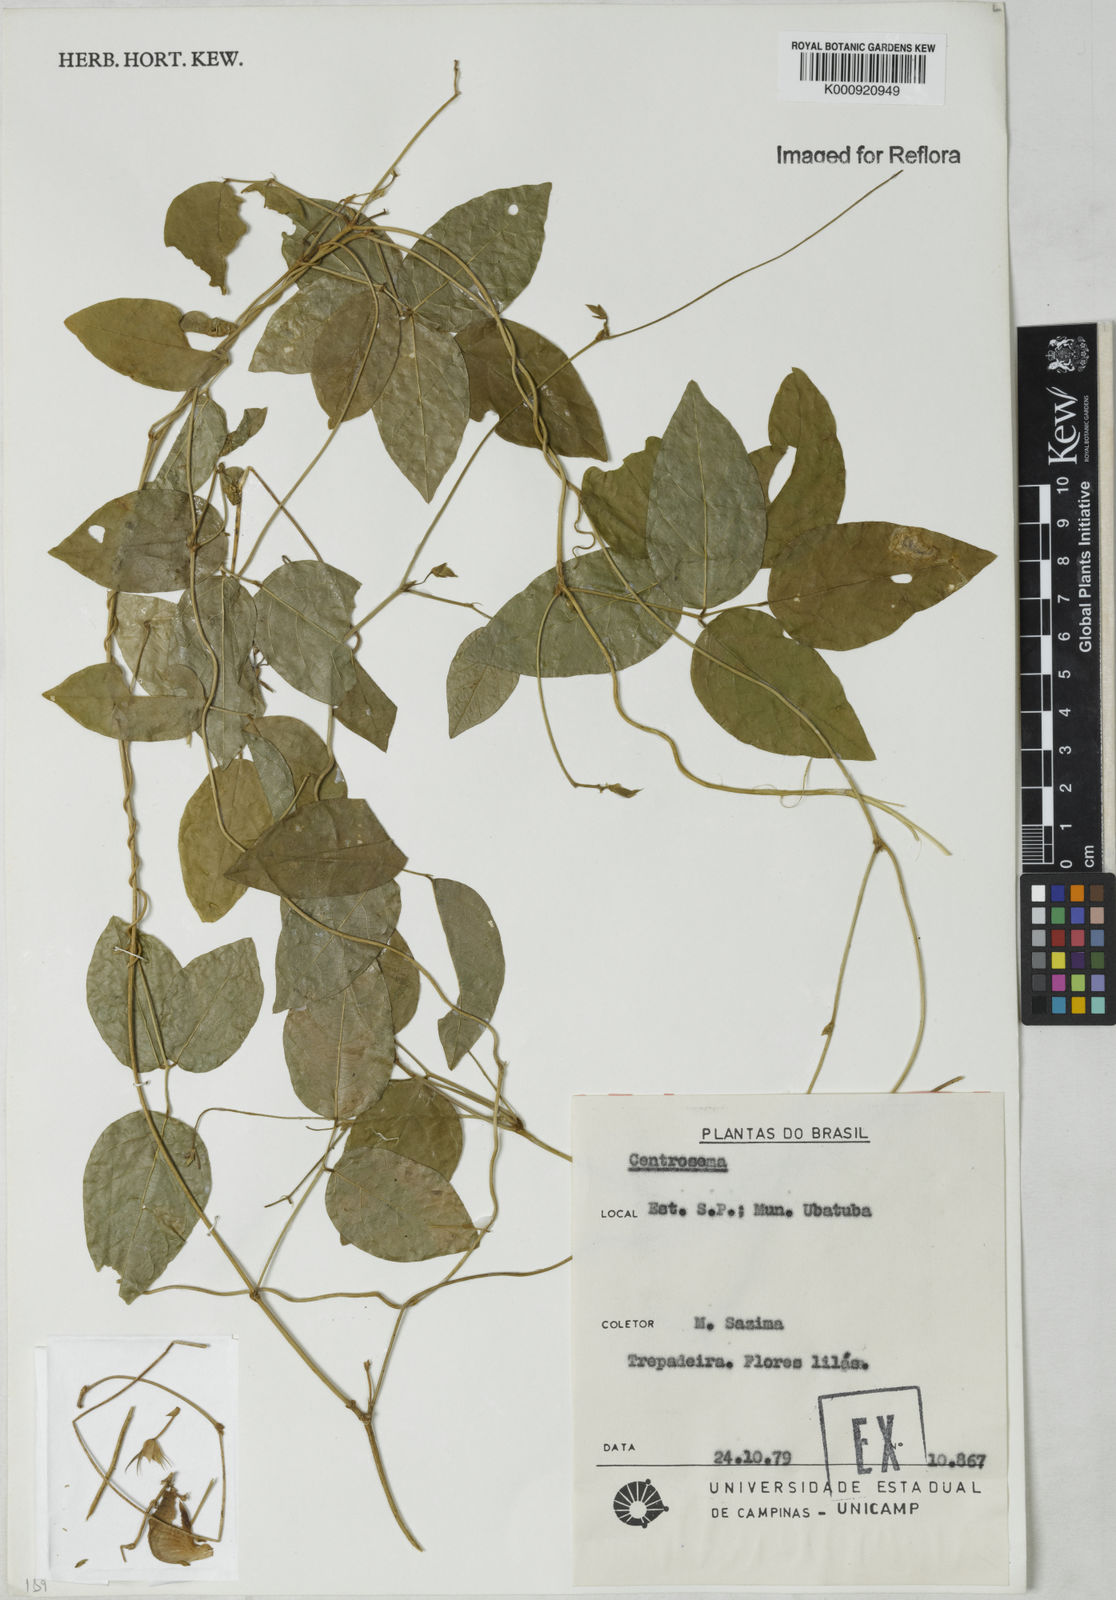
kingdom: Plantae
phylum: Tracheophyta
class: Magnoliopsida
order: Fabales
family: Fabaceae
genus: Centrosema
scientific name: Centrosema
